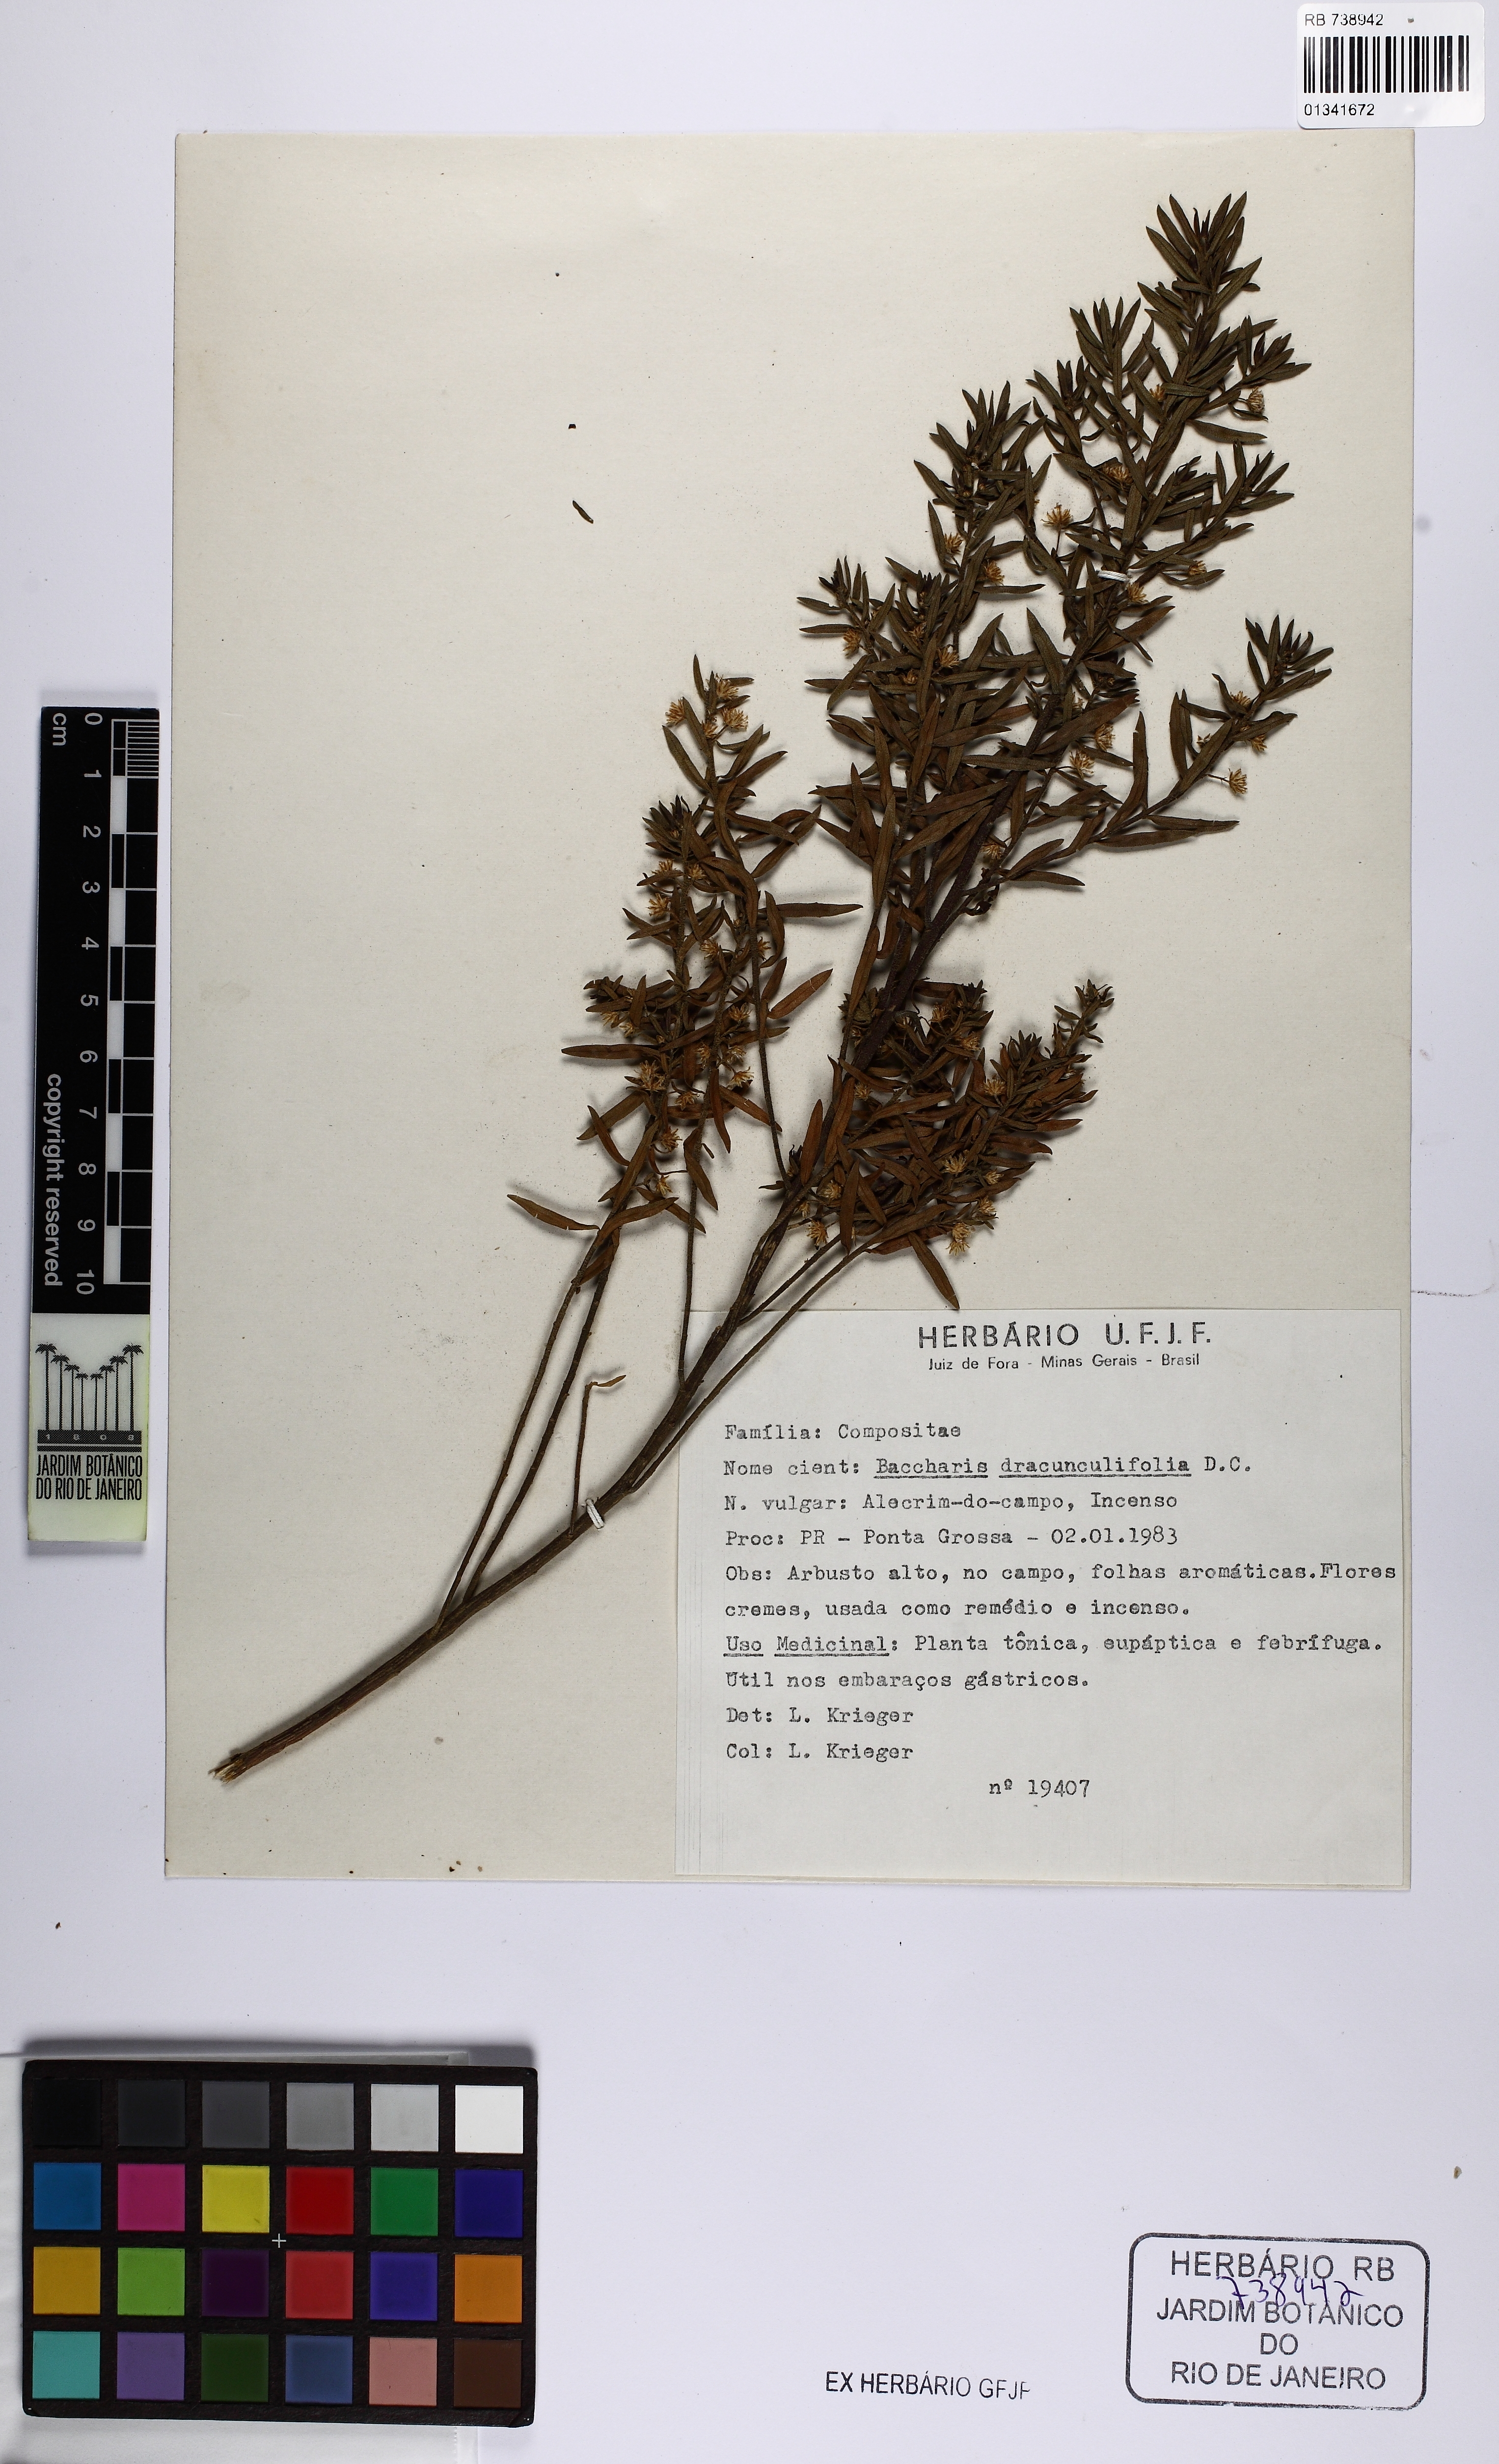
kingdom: Plantae
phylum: Tracheophyta
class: Magnoliopsida
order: Asterales
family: Asteraceae
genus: Baccharis
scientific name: Baccharis dracunculifolia
